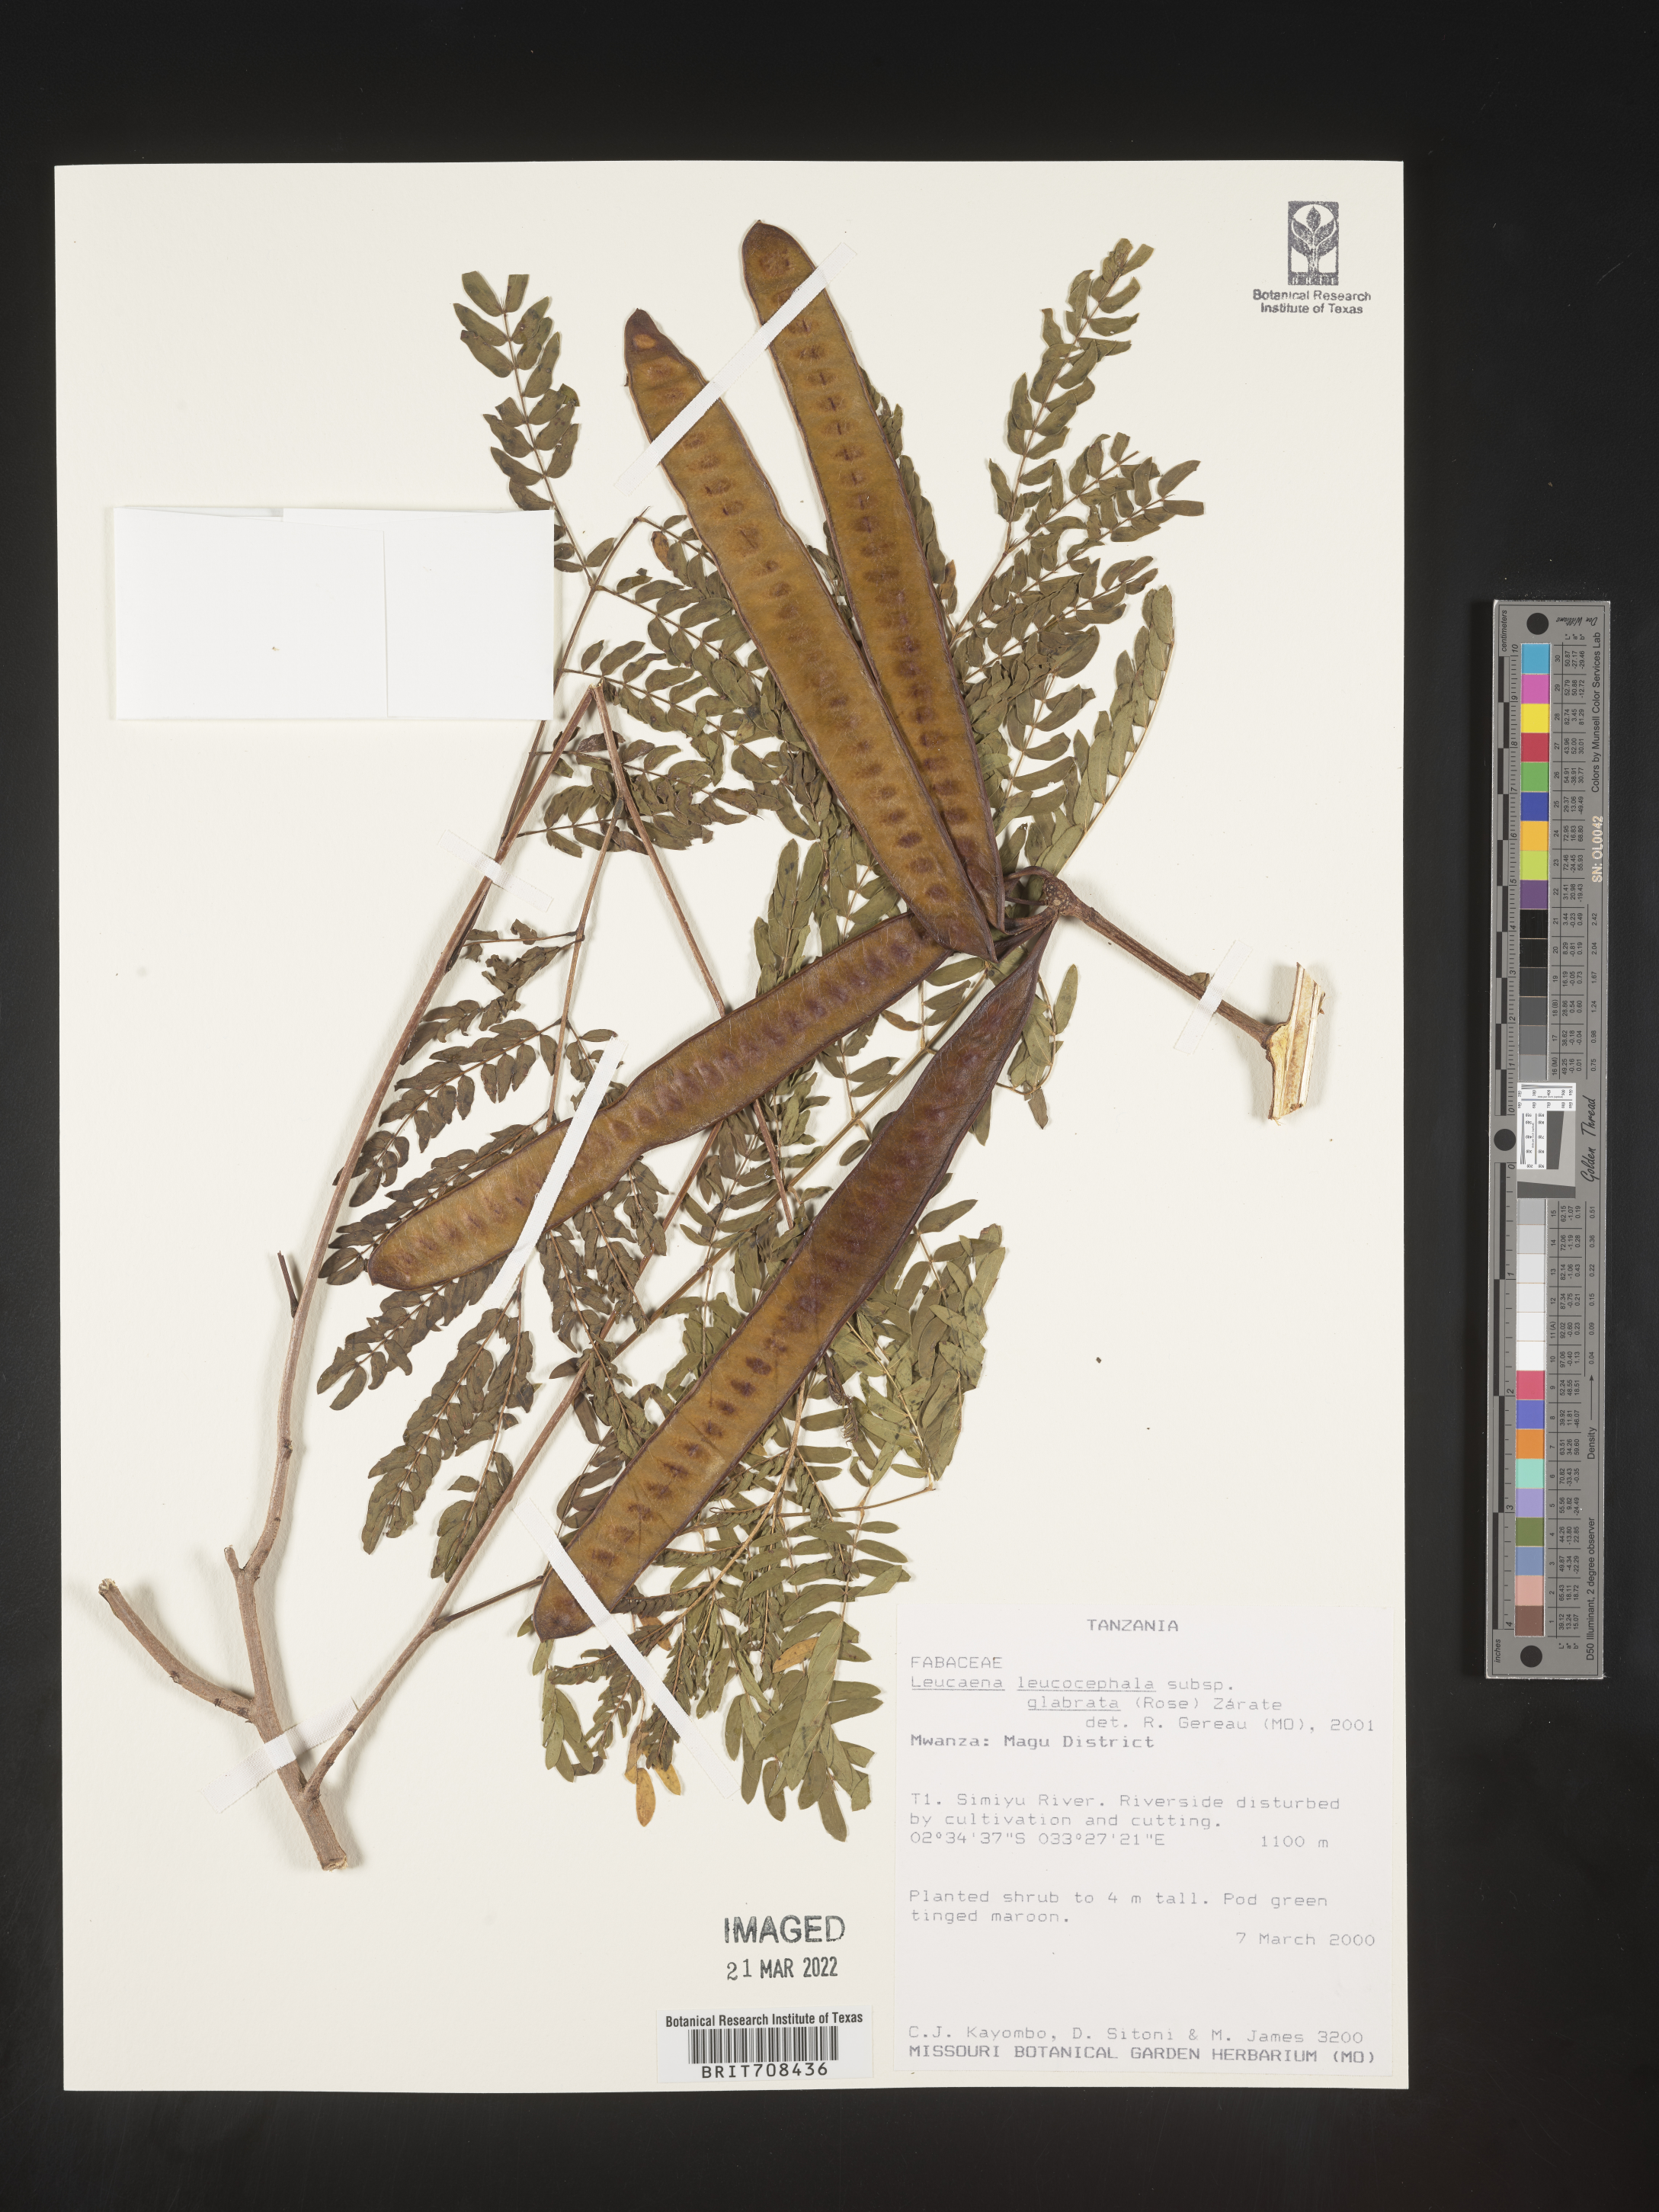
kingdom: Plantae
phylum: Tracheophyta
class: Magnoliopsida
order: Fabales
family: Fabaceae
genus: Leucaena
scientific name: Leucaena
